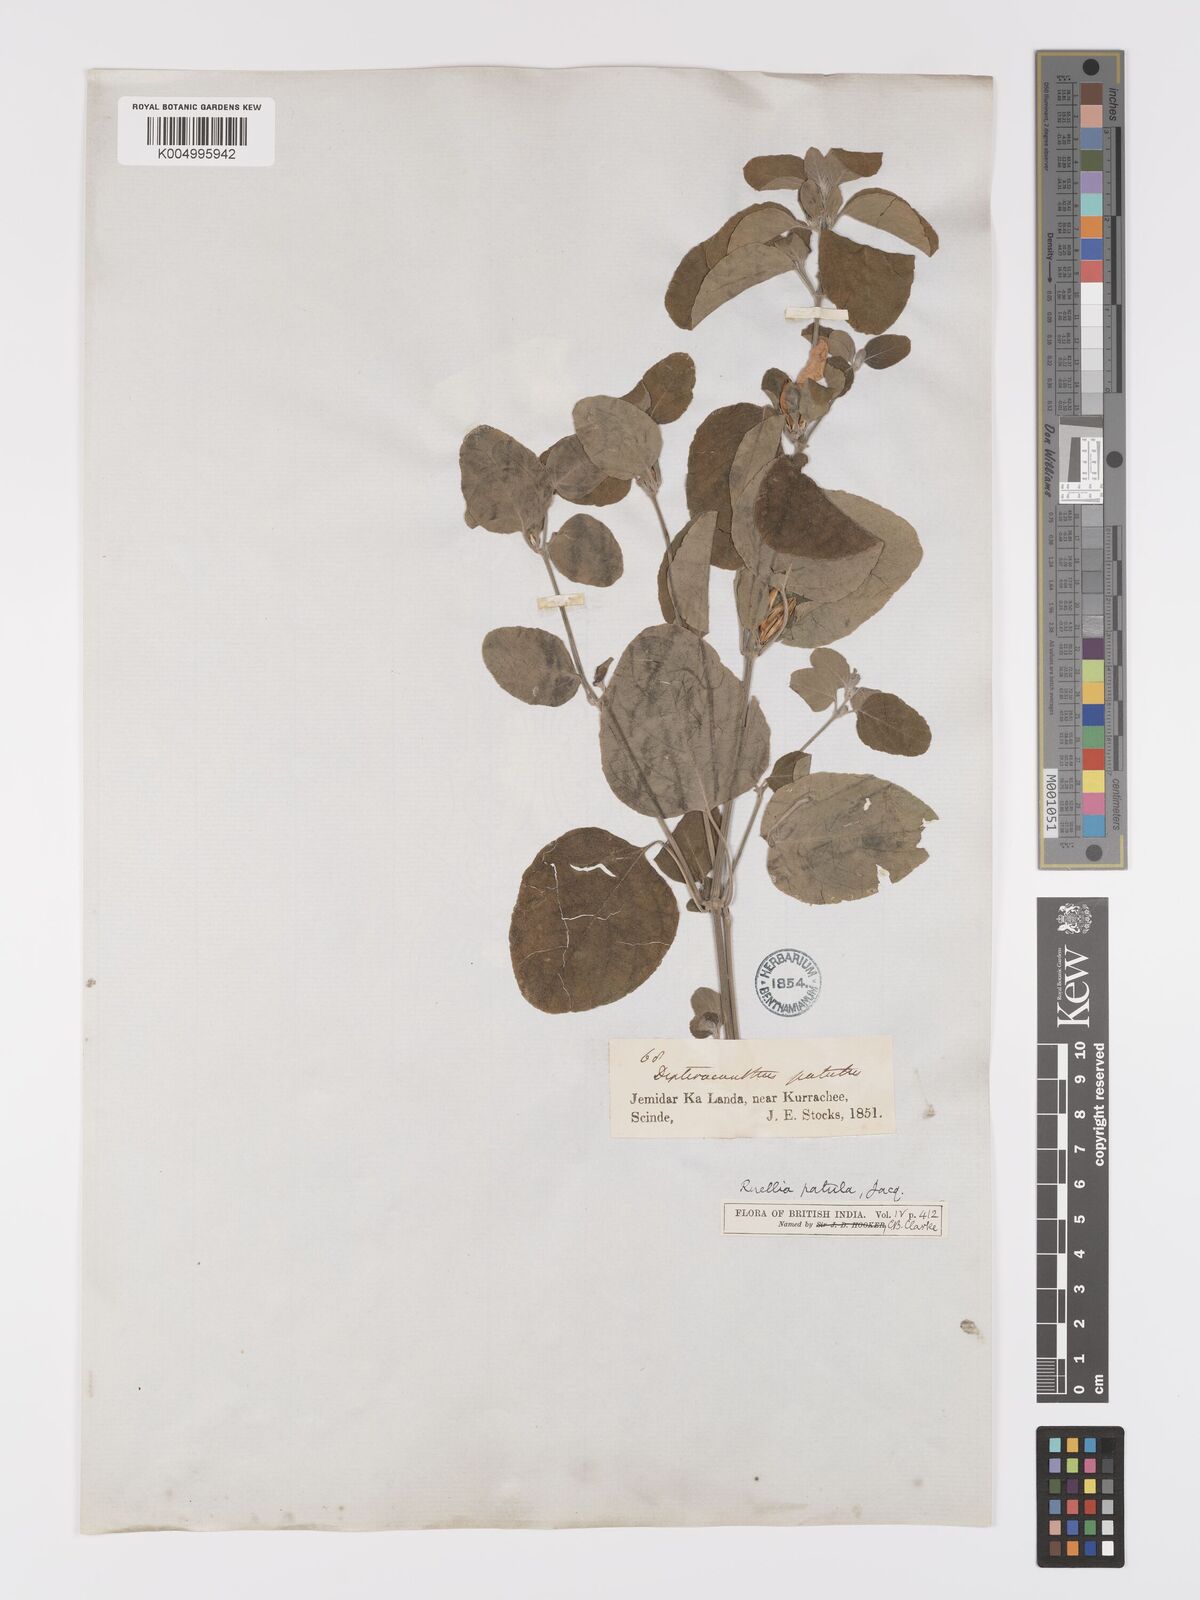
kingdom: Plantae
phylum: Tracheophyta
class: Magnoliopsida
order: Lamiales
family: Acanthaceae
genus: Ruellia
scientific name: Ruellia pseudopatula
